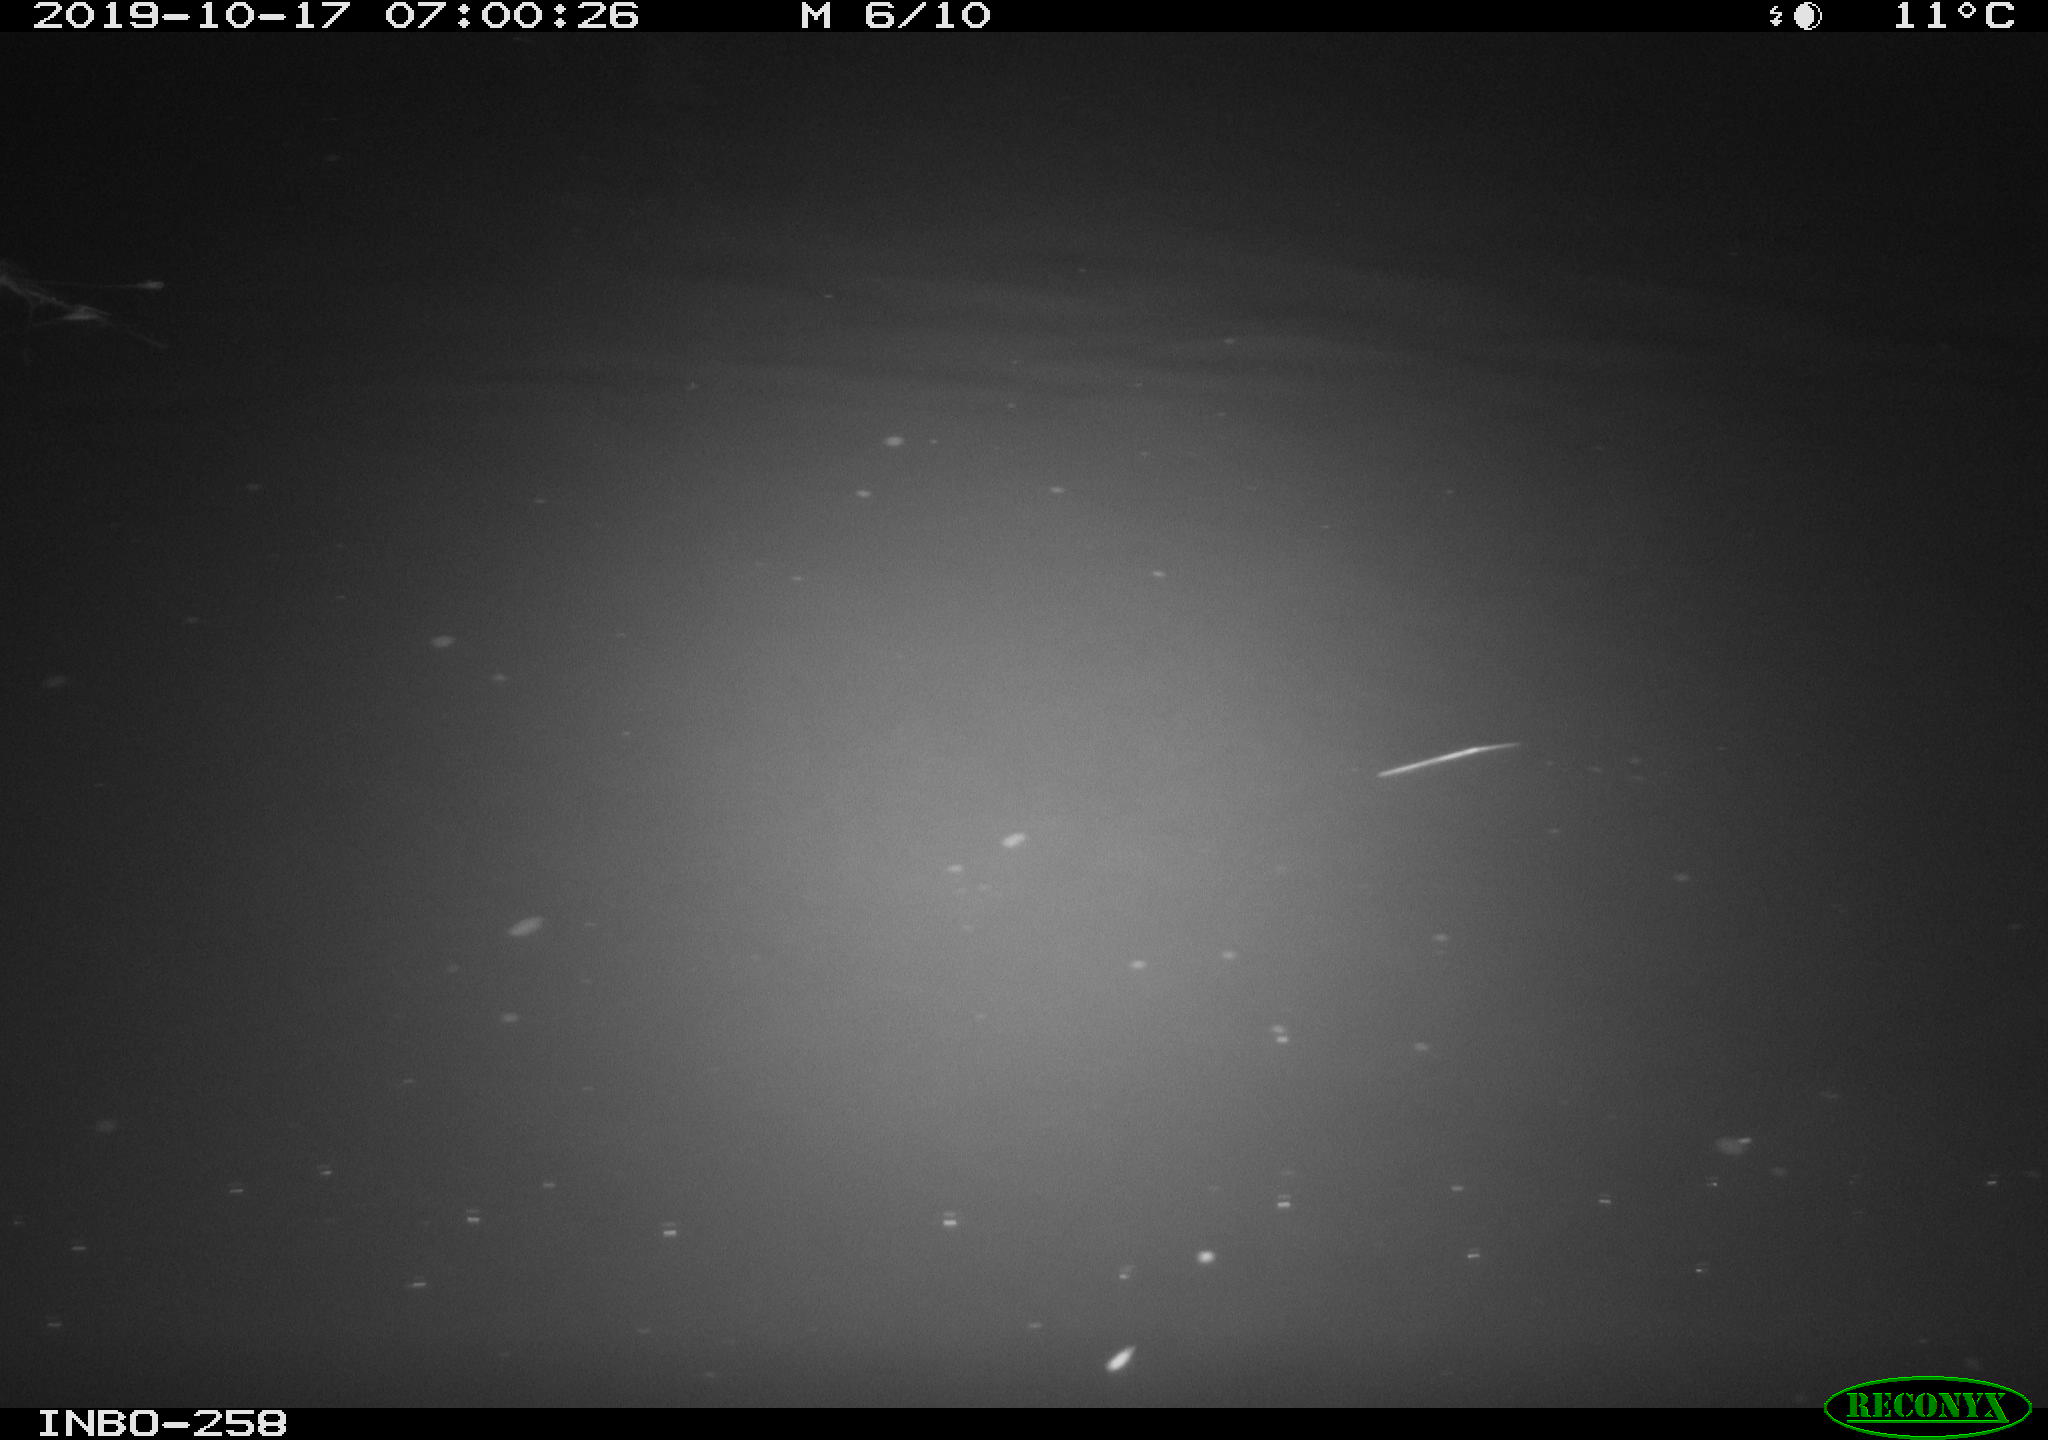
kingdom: Animalia
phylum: Chordata
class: Aves
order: Anseriformes
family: Anatidae
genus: Anas
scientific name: Anas platyrhynchos
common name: Mallard
